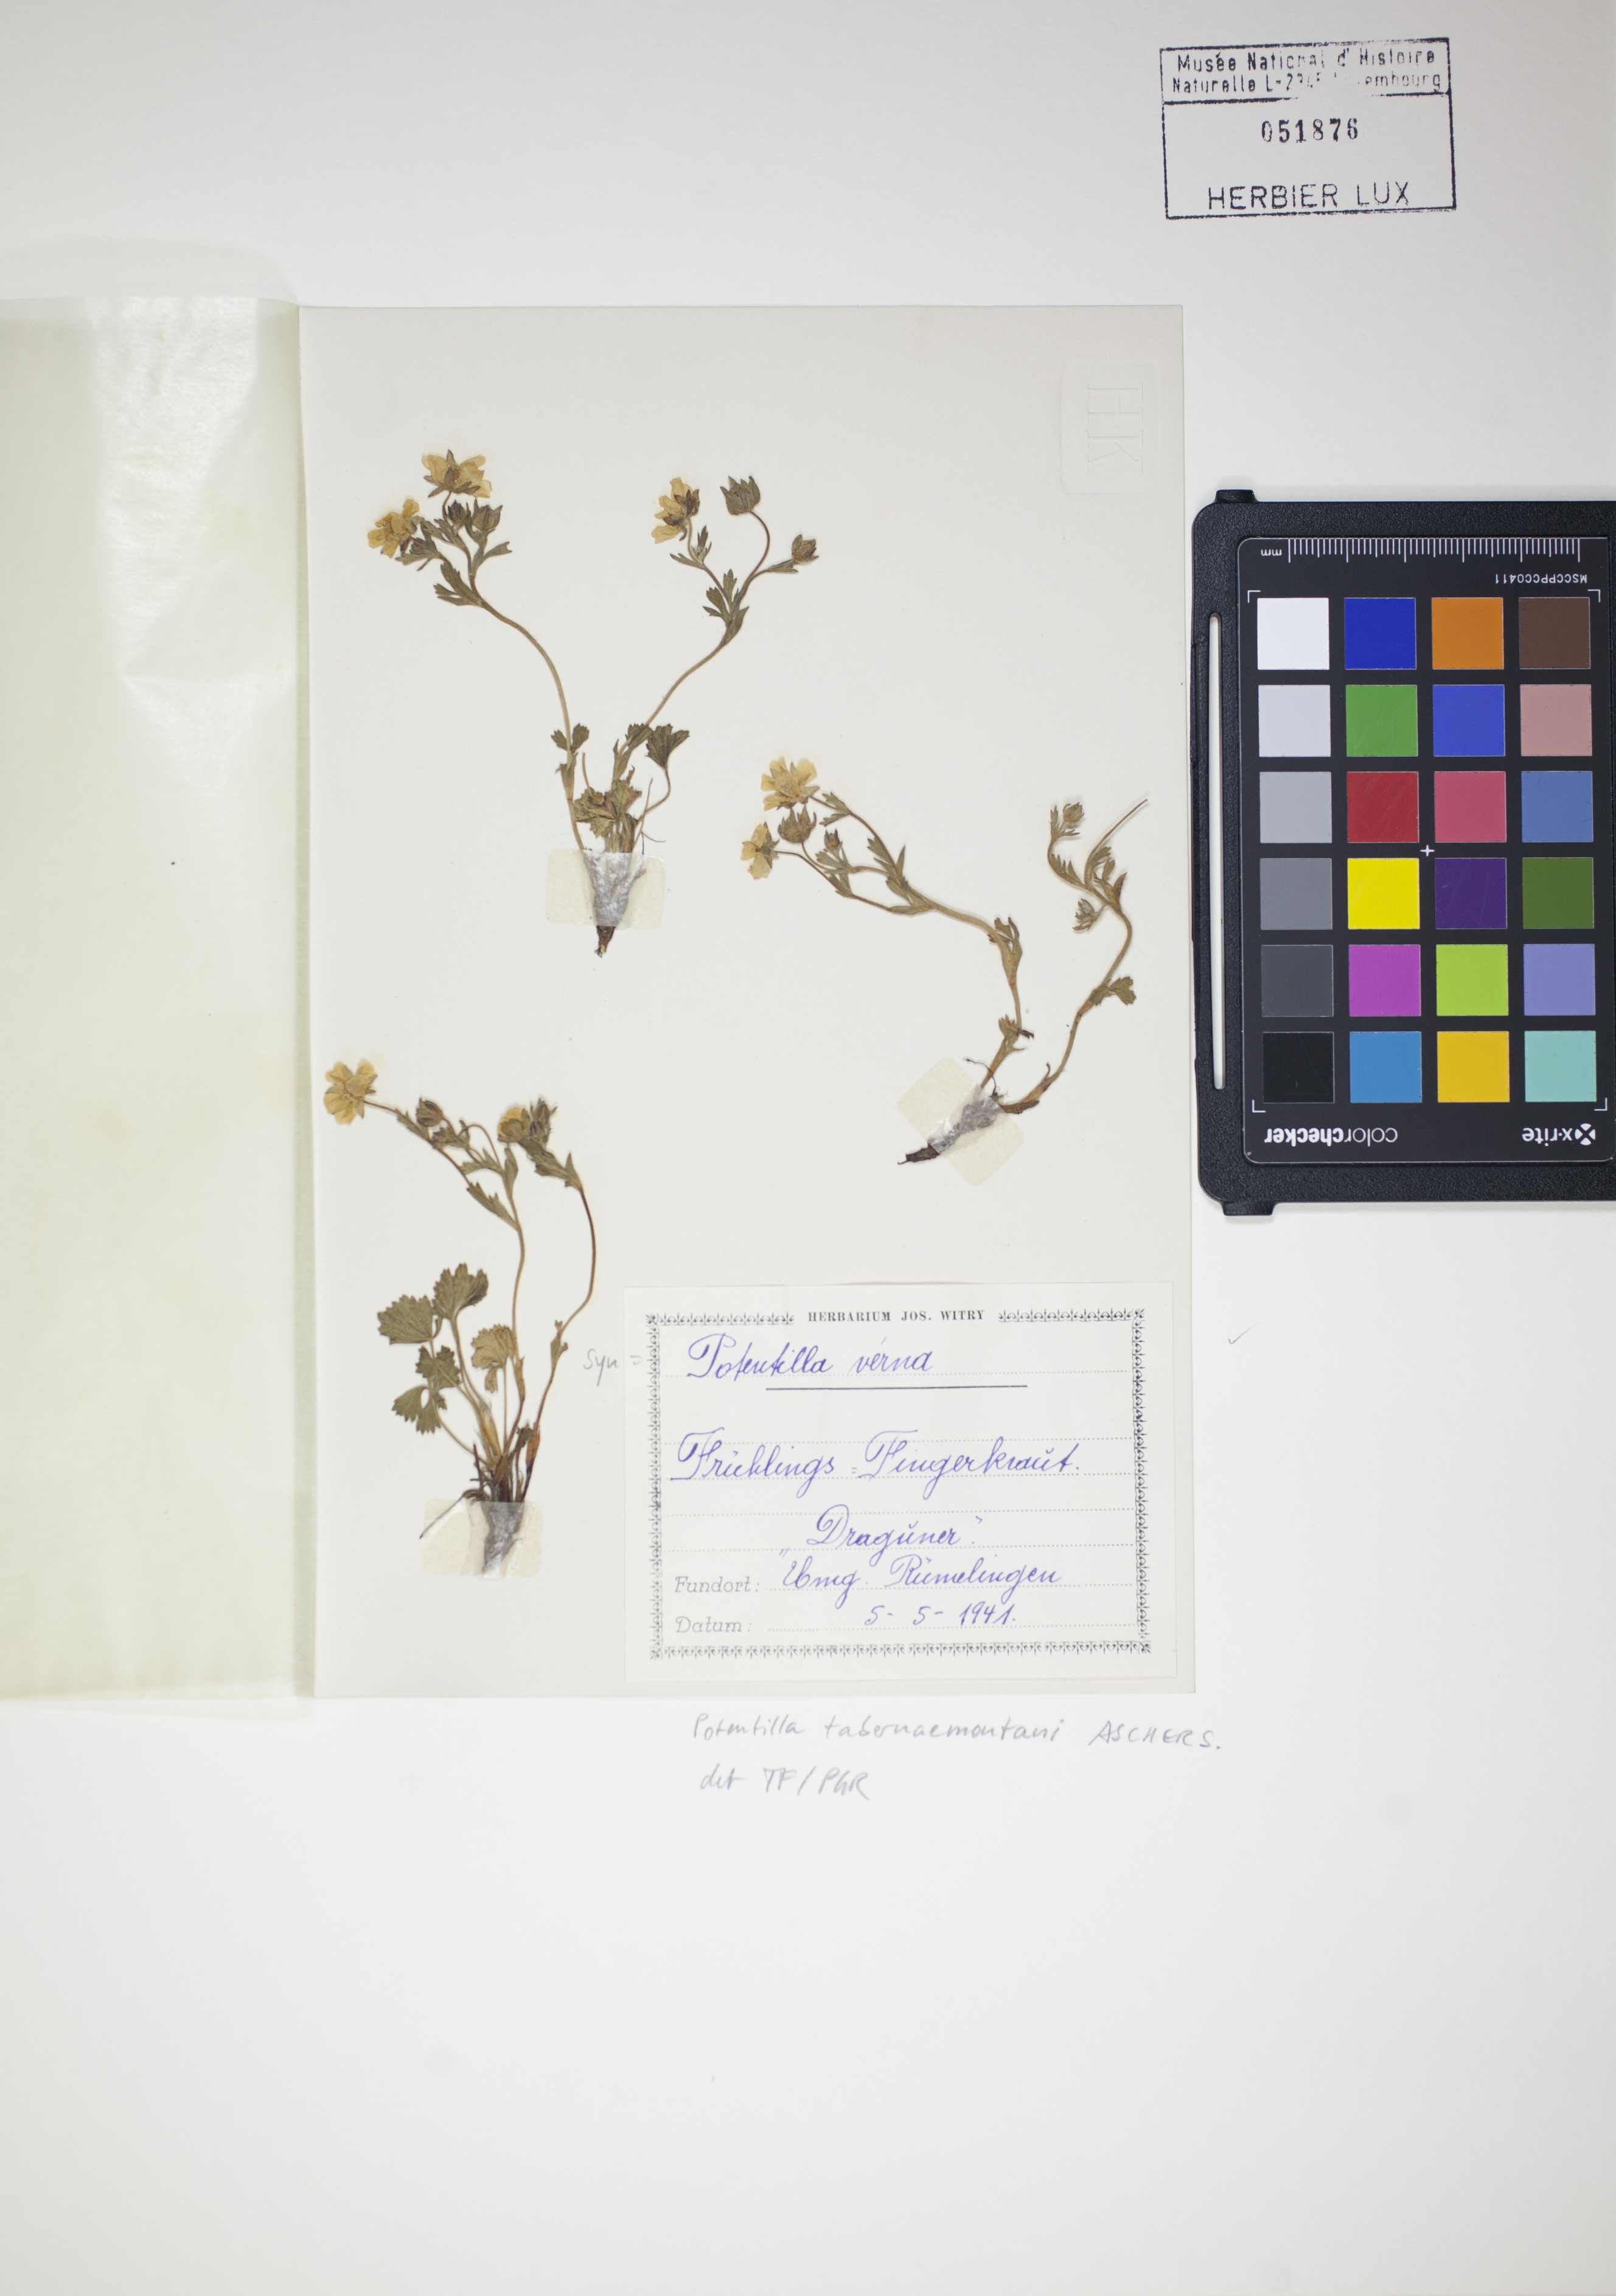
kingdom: Plantae
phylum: Tracheophyta
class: Magnoliopsida
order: Rosales
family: Rosaceae
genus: Potentilla
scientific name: Potentilla verna
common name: Spring cinquefoil
